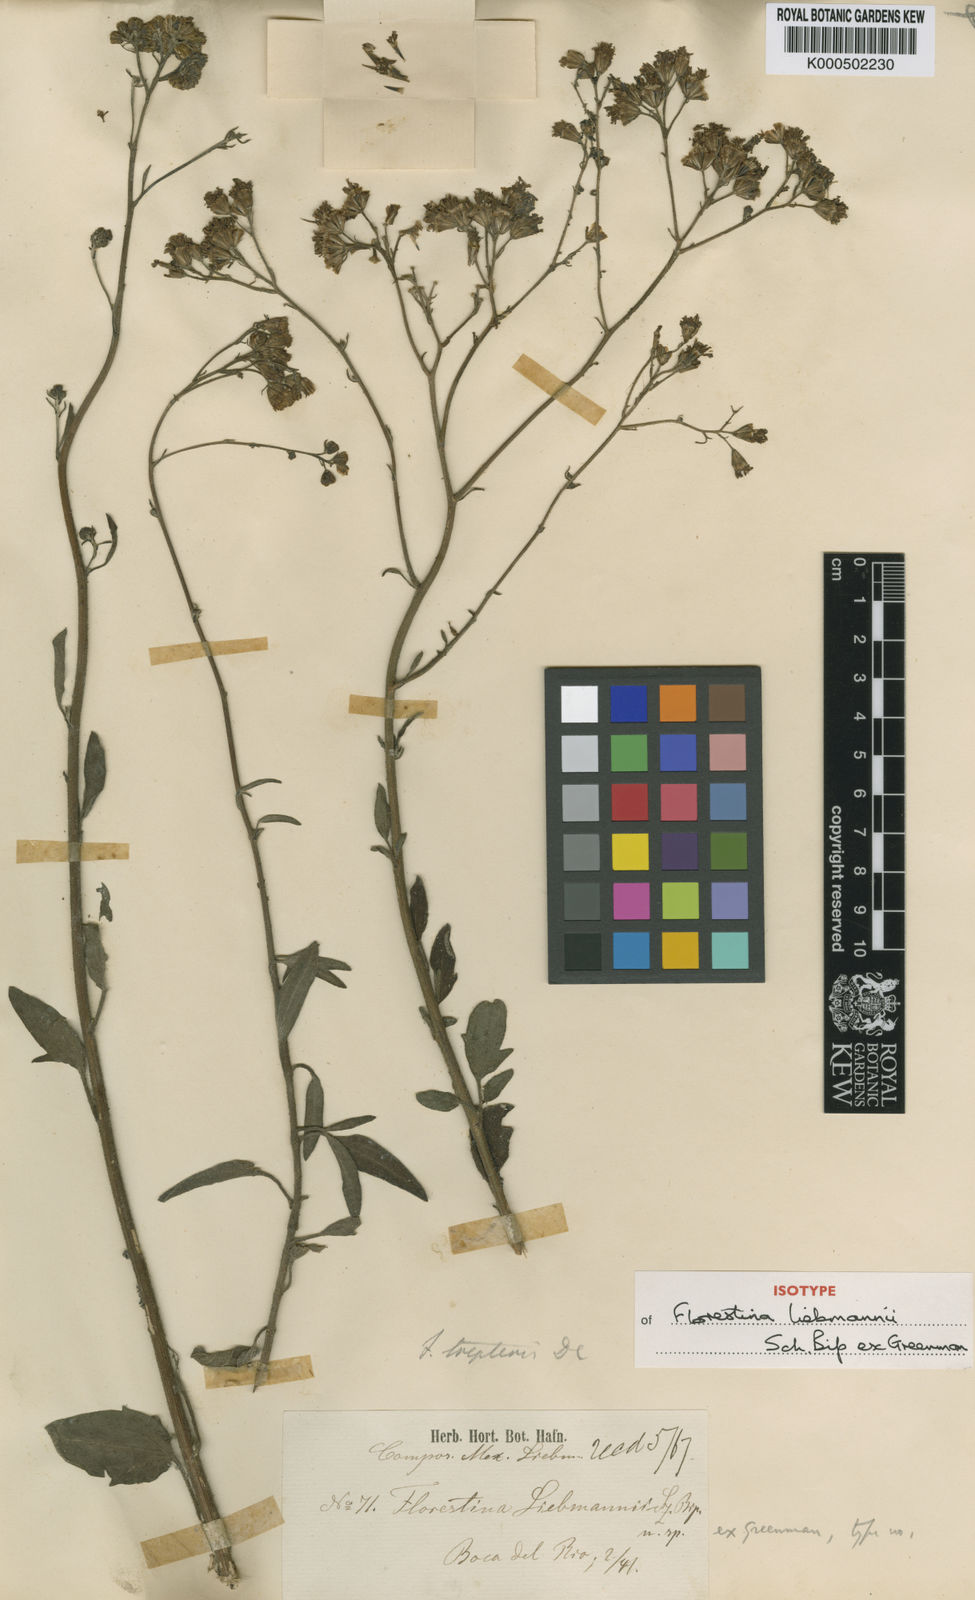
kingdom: Plantae
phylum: Tracheophyta
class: Magnoliopsida
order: Asterales
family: Asteraceae
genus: Florestina
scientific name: Florestina liebmannii
